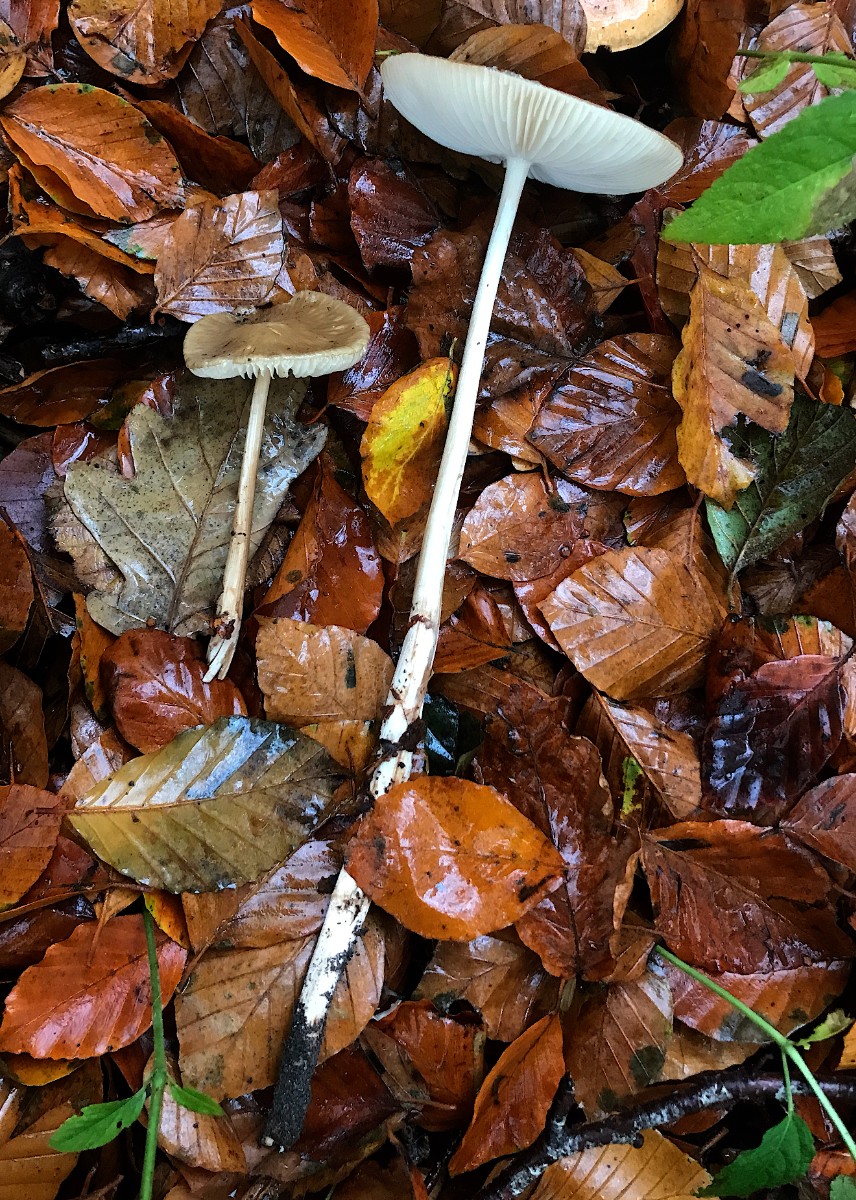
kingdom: Fungi
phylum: Basidiomycota
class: Agaricomycetes
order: Agaricales
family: Physalacriaceae
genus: Hymenopellis
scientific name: Hymenopellis radicata
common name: almindelig pælerodshat
